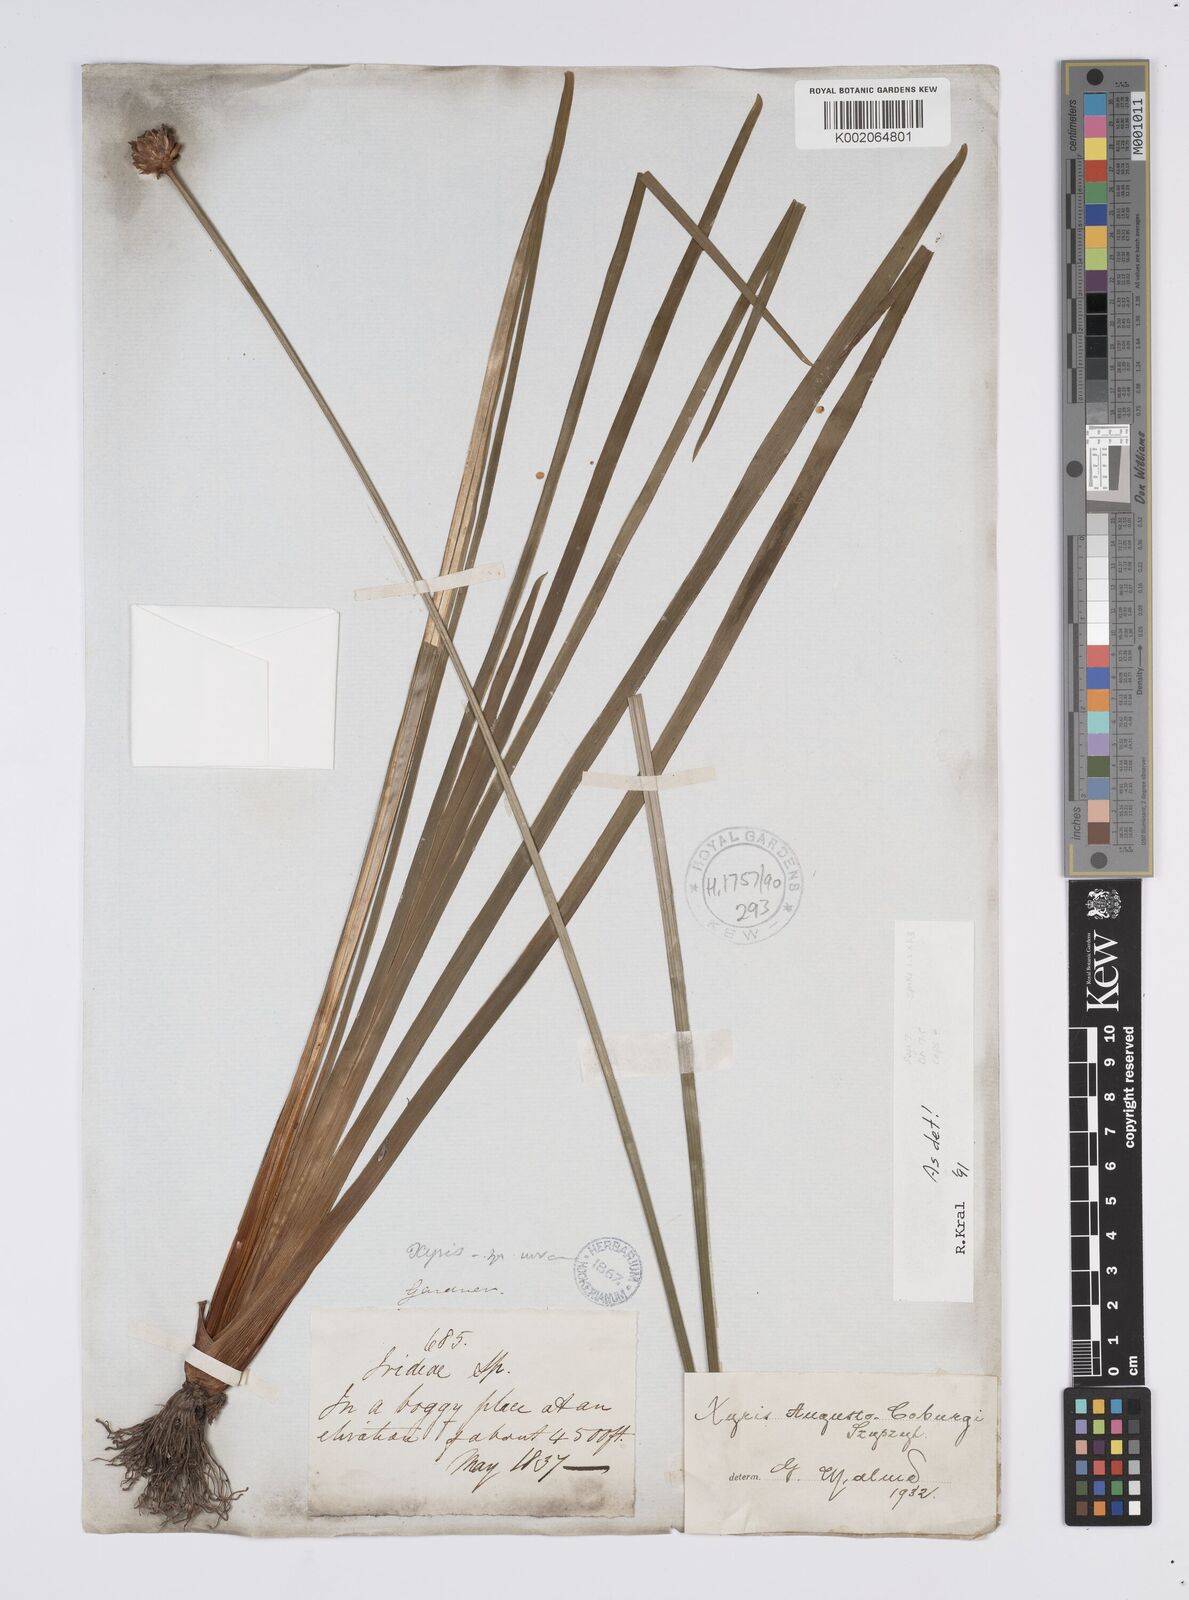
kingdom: Plantae
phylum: Tracheophyta
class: Liliopsida
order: Poales
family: Xyridaceae
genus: Xyris
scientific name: Xyris augusto-coburgii
